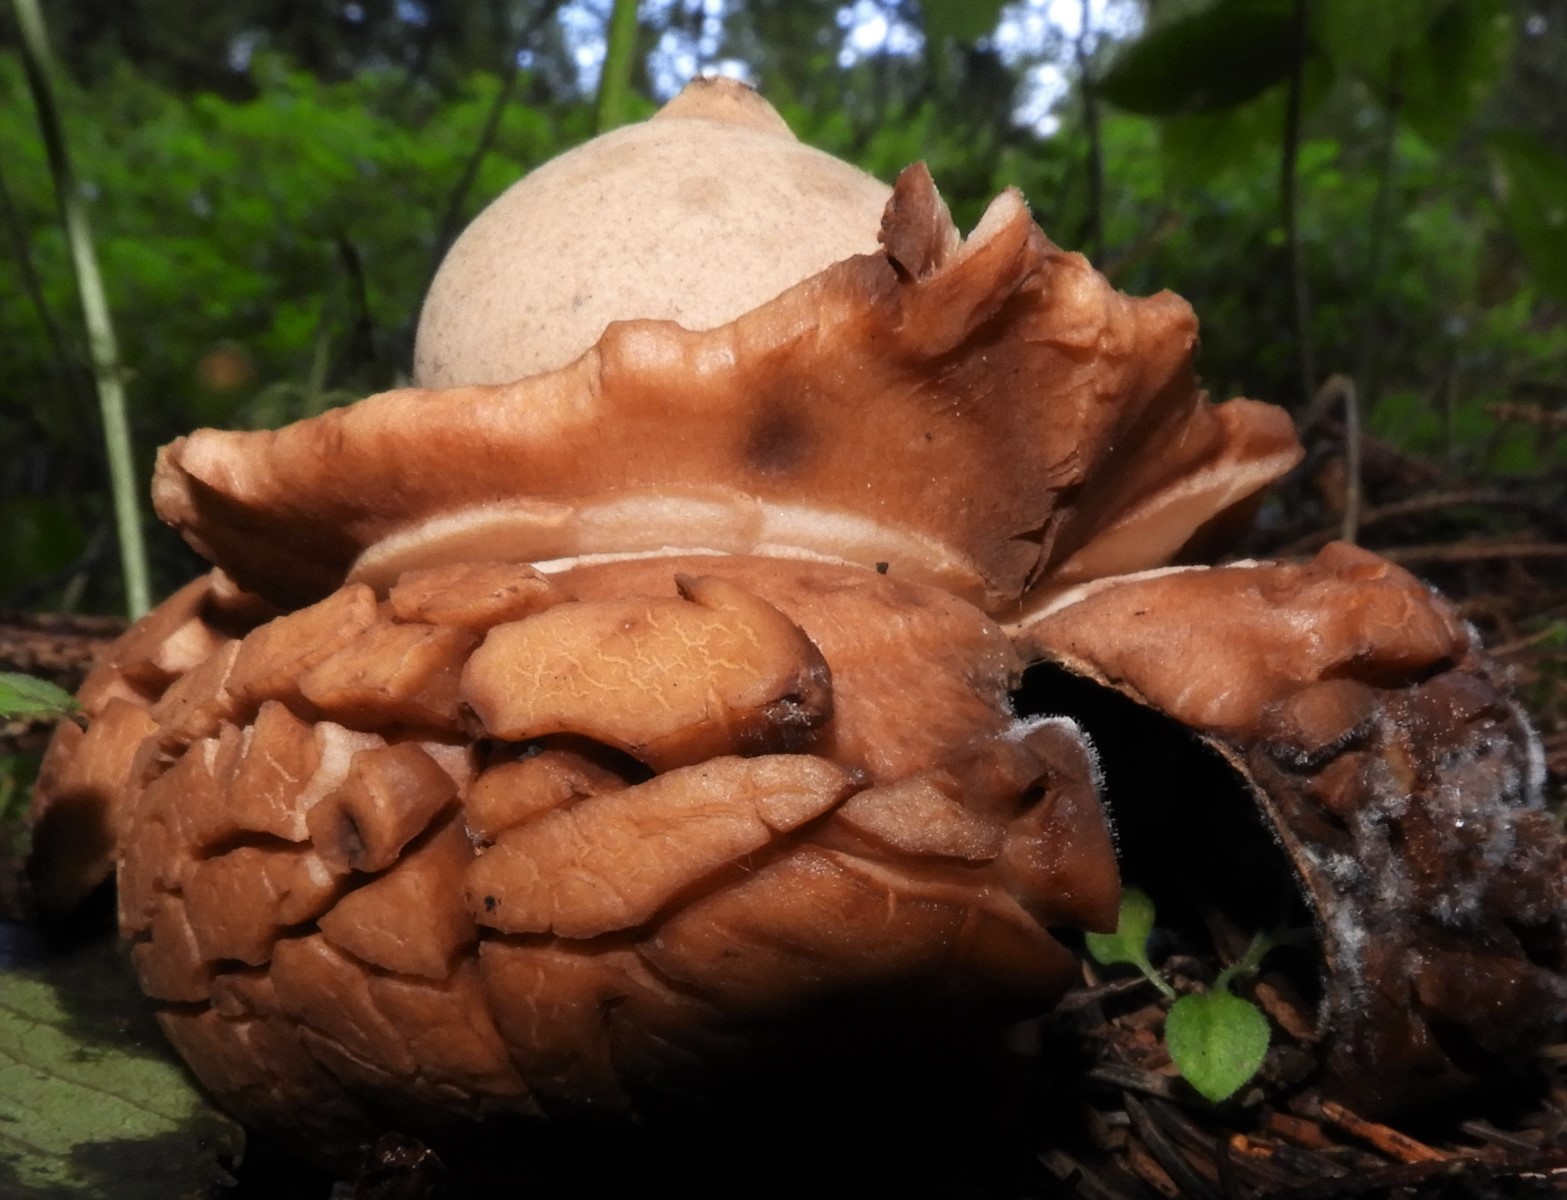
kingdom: Fungi
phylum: Basidiomycota
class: Agaricomycetes
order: Geastrales
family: Geastraceae
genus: Geastrum
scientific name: Geastrum michelianum
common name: kødet stjernebold
